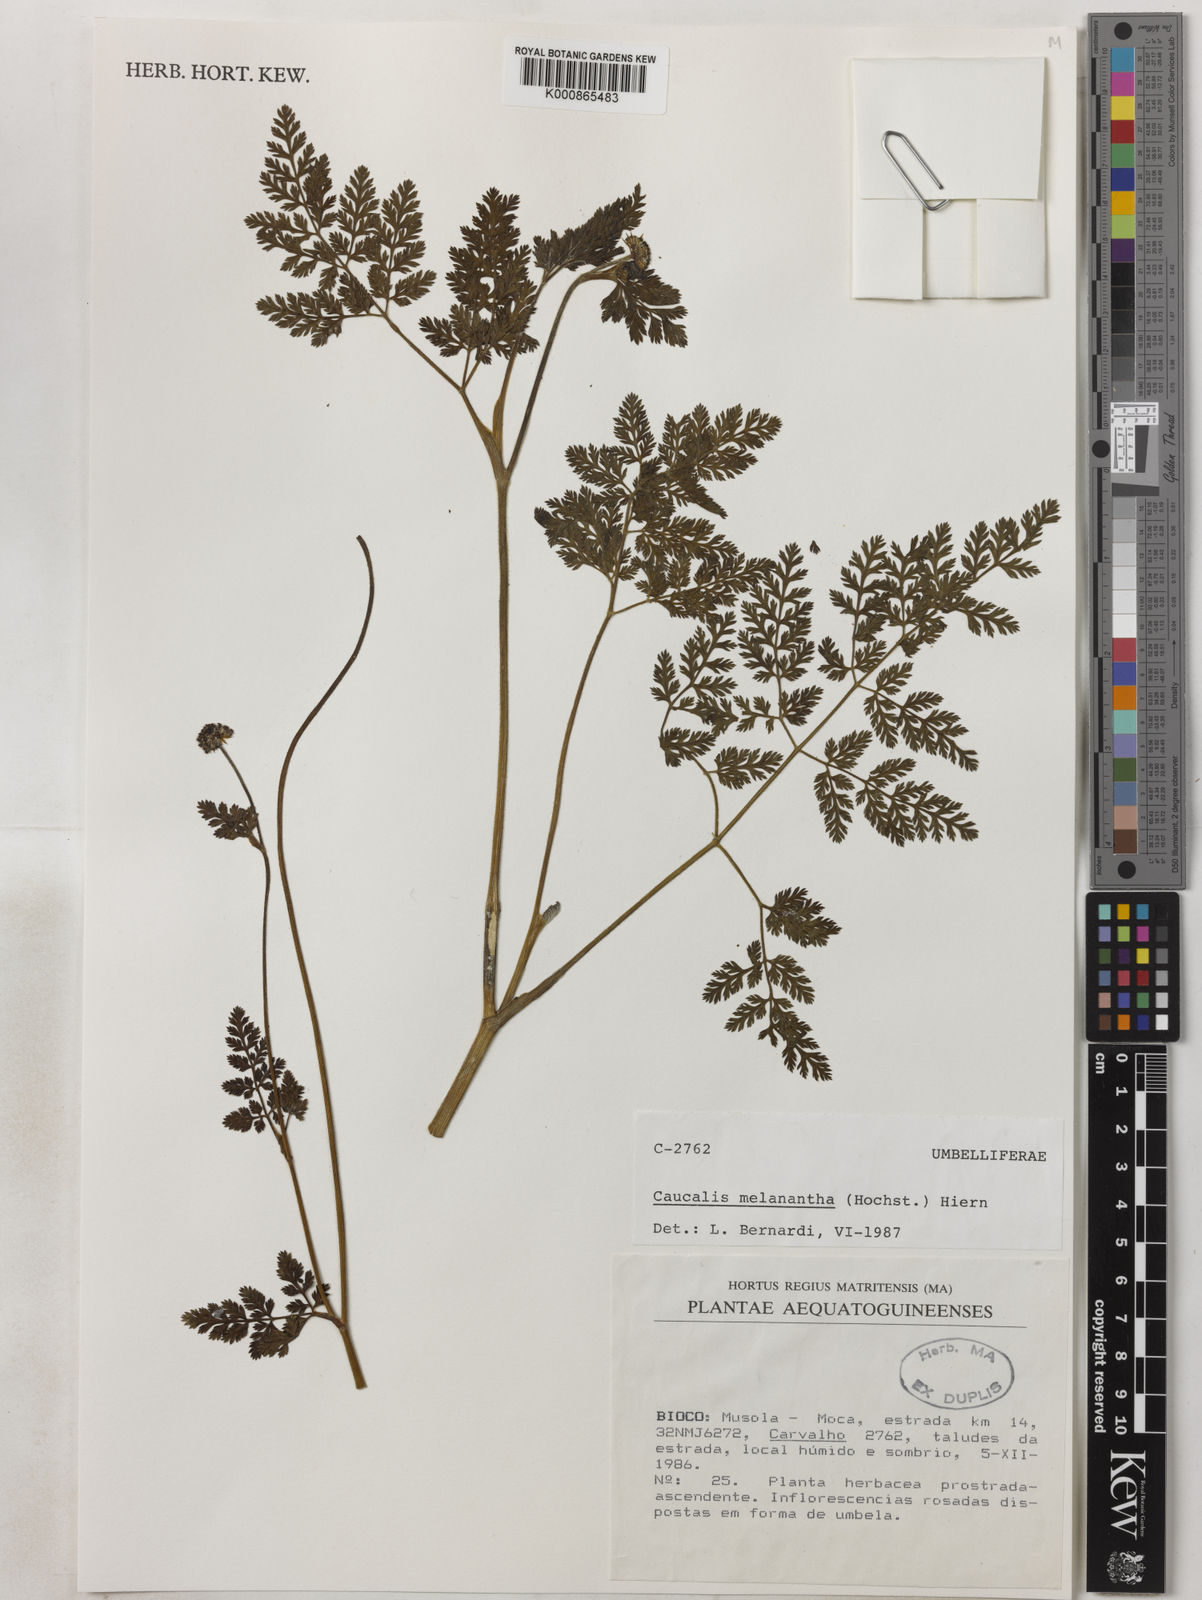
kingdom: Plantae
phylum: Tracheophyta
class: Magnoliopsida
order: Apiales
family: Apiaceae
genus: Daucus
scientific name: Daucus melananthus
